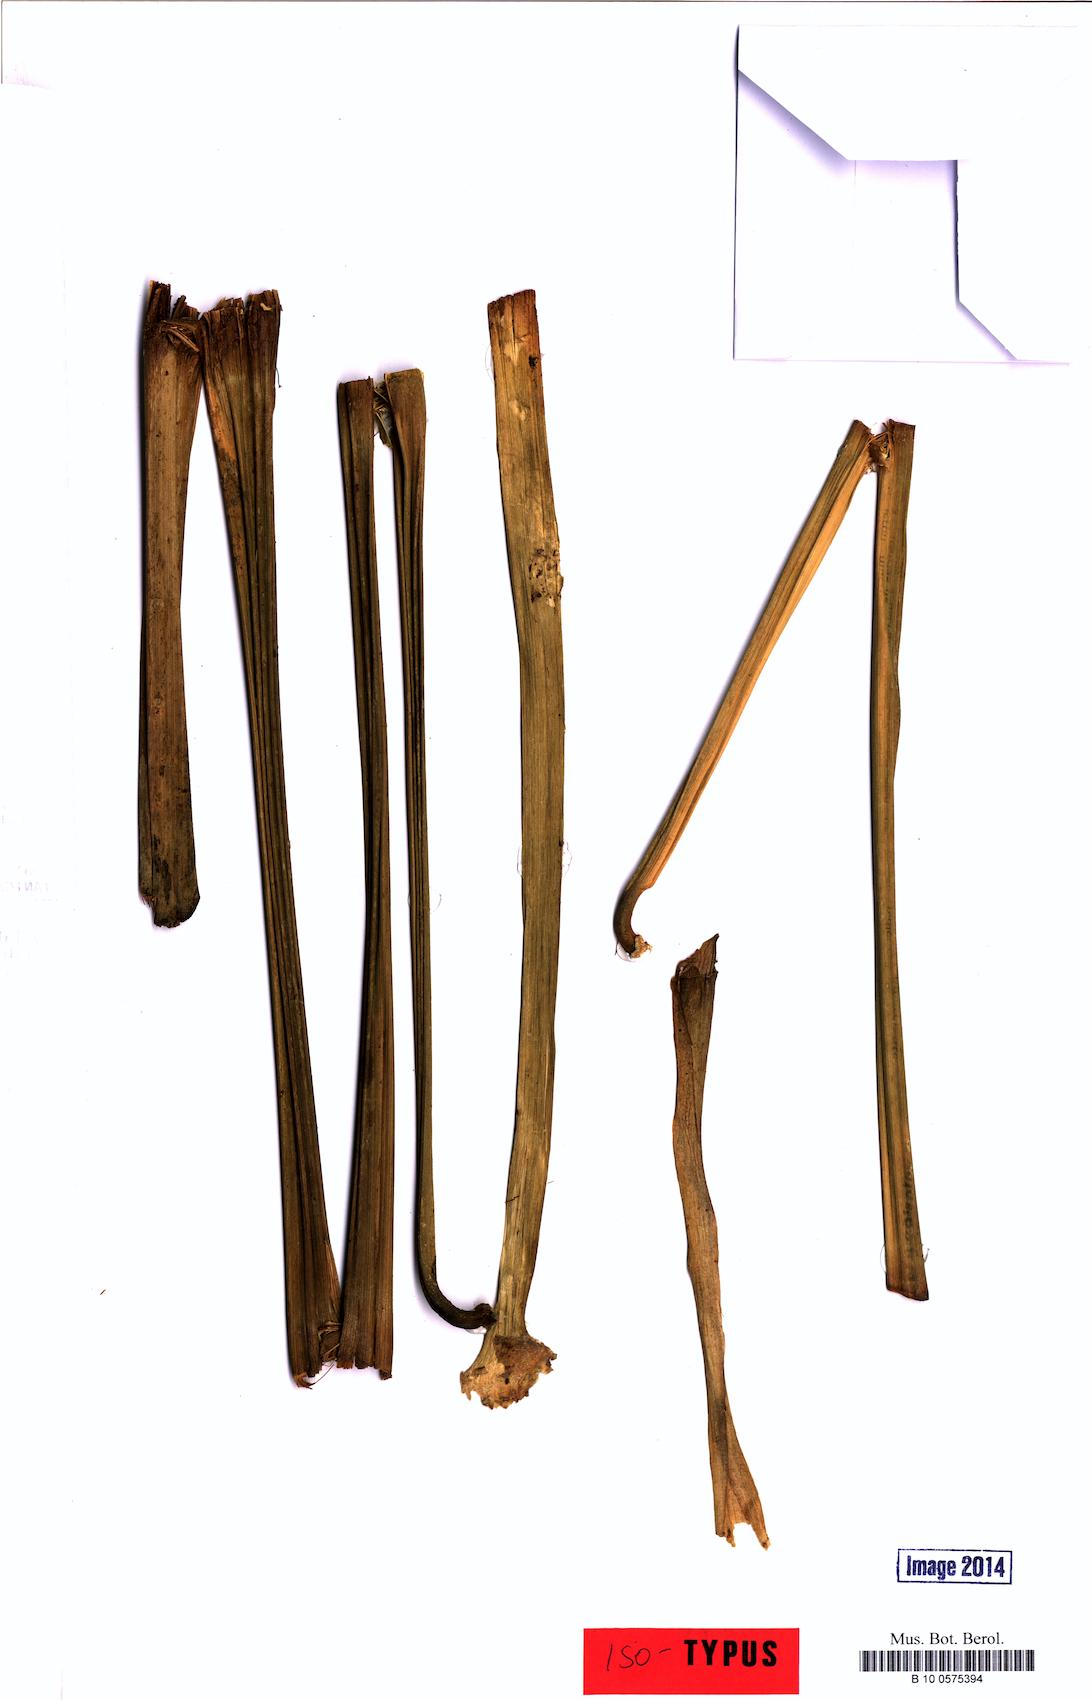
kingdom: Plantae
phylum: Tracheophyta
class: Liliopsida
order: Alismatales
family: Araceae
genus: Anthurium
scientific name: Anthurium ramosense
